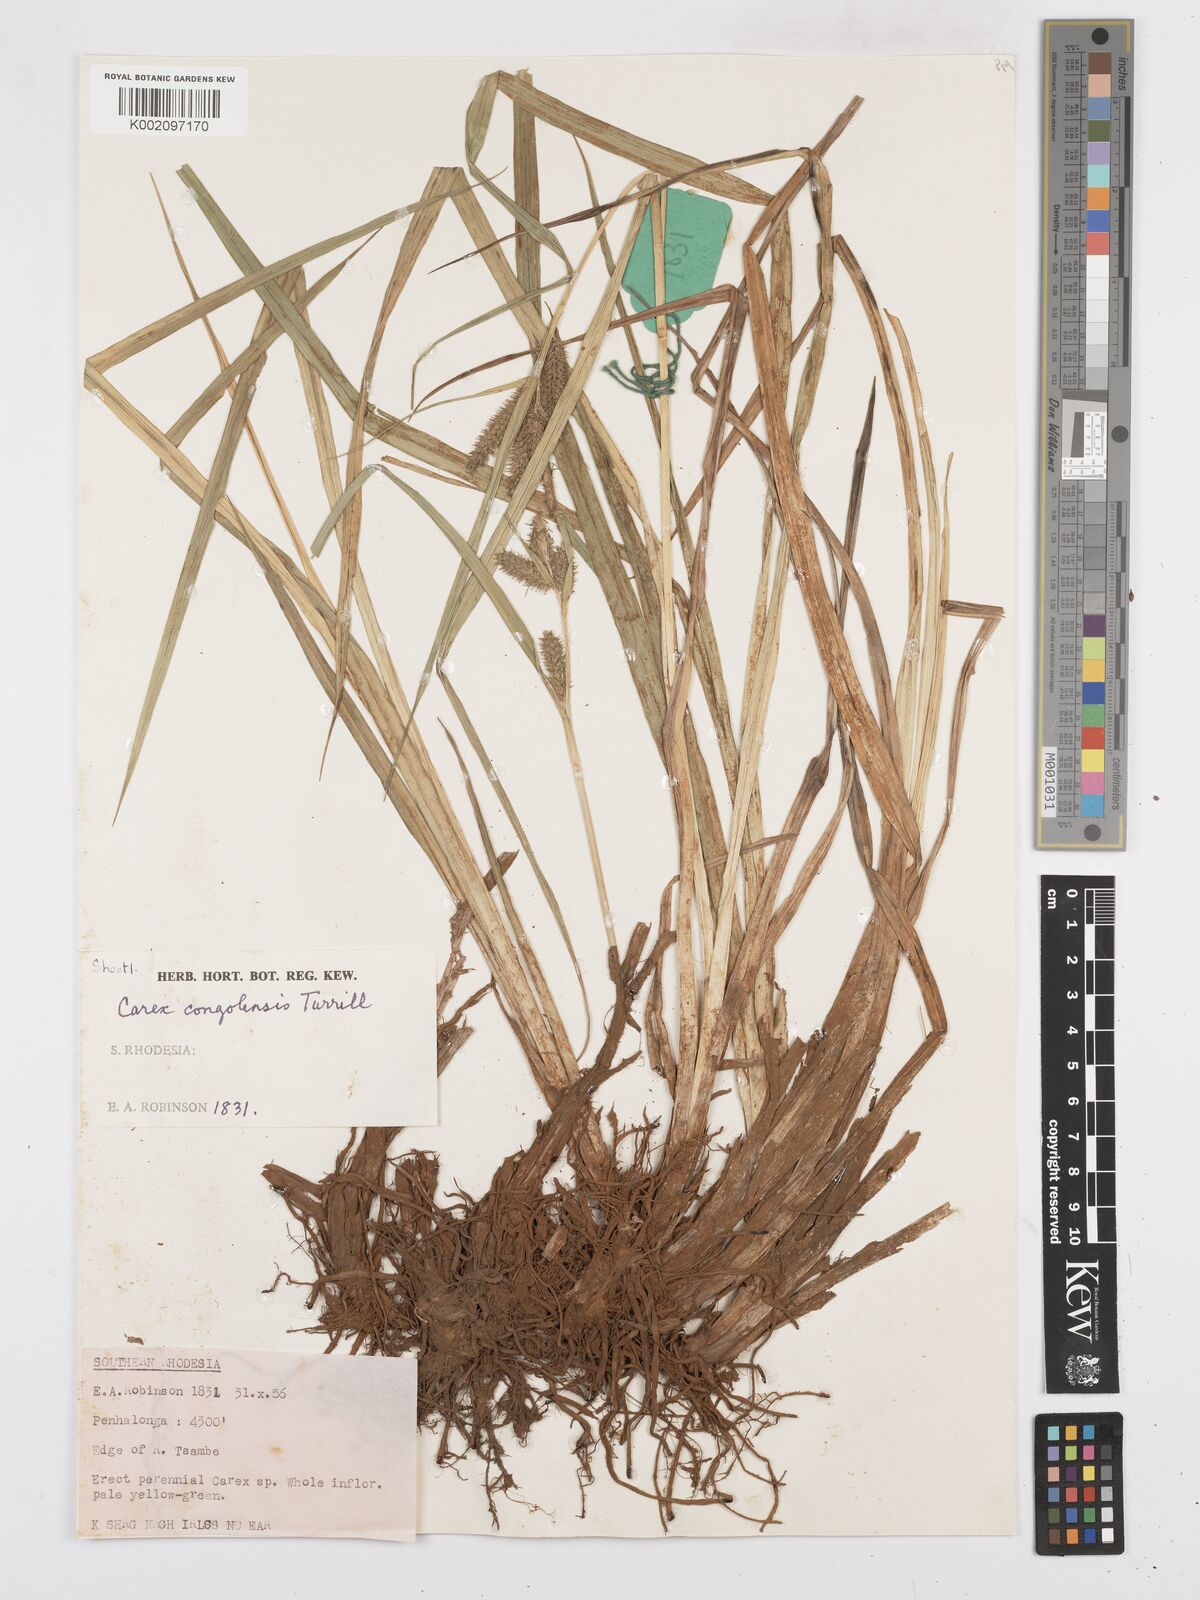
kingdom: Plantae
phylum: Tracheophyta
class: Liliopsida
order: Poales
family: Cyperaceae
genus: Carex
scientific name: Carex congolensis
